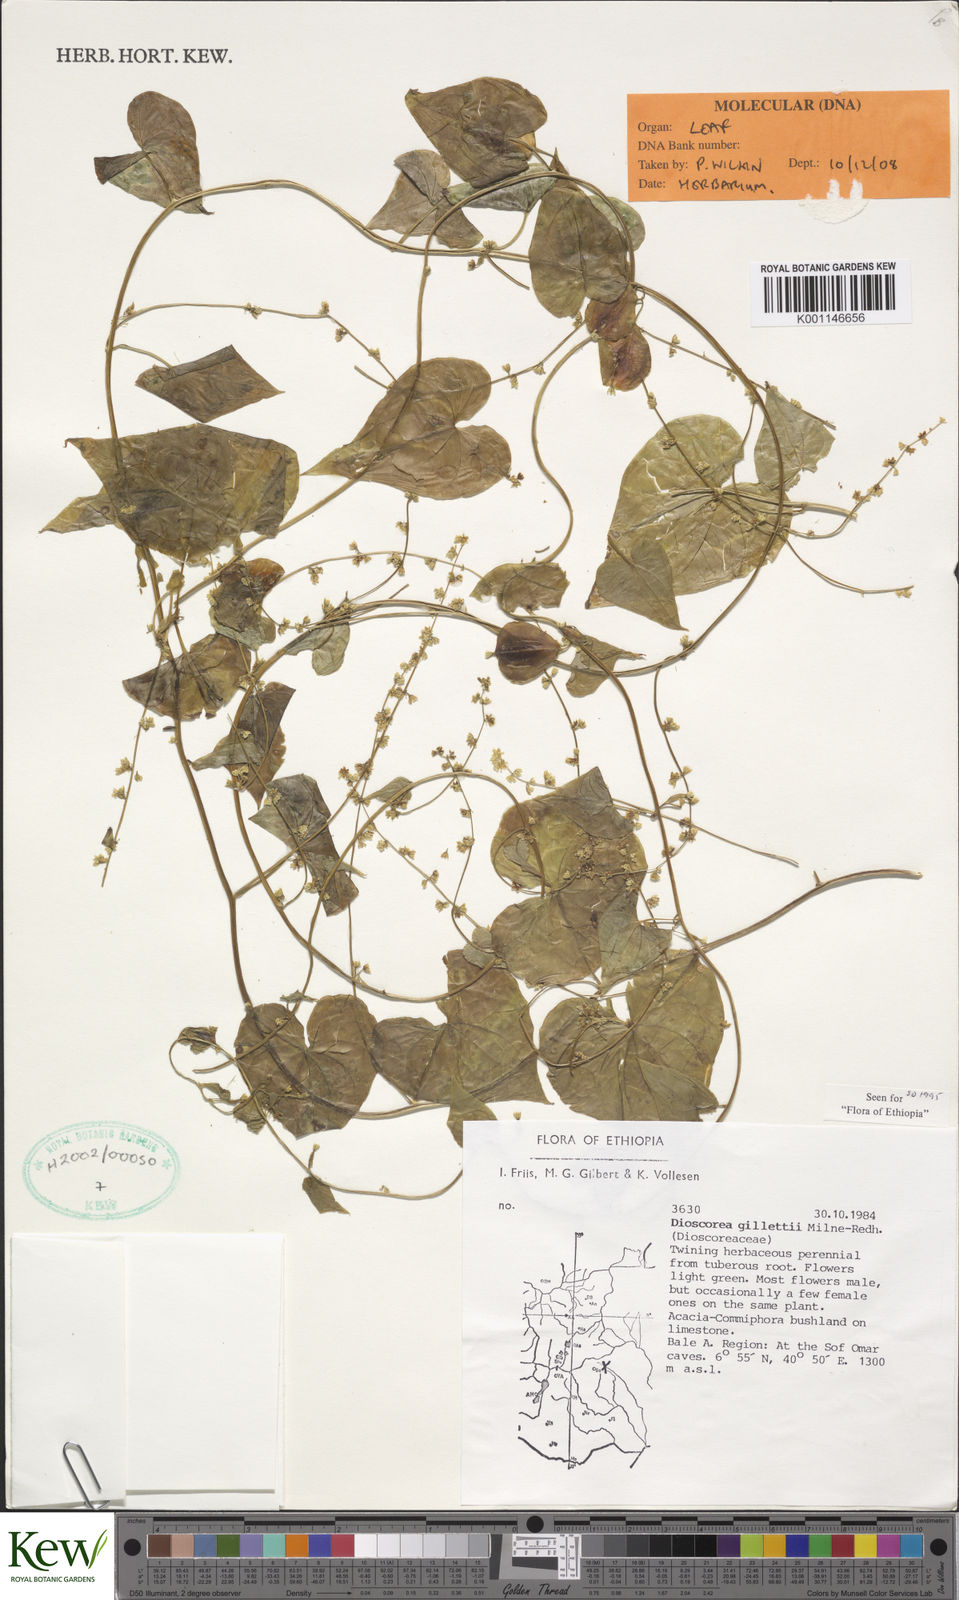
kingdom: Plantae
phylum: Tracheophyta
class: Liliopsida
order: Dioscoreales
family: Dioscoreaceae
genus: Dioscorea
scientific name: Dioscorea gillettii
